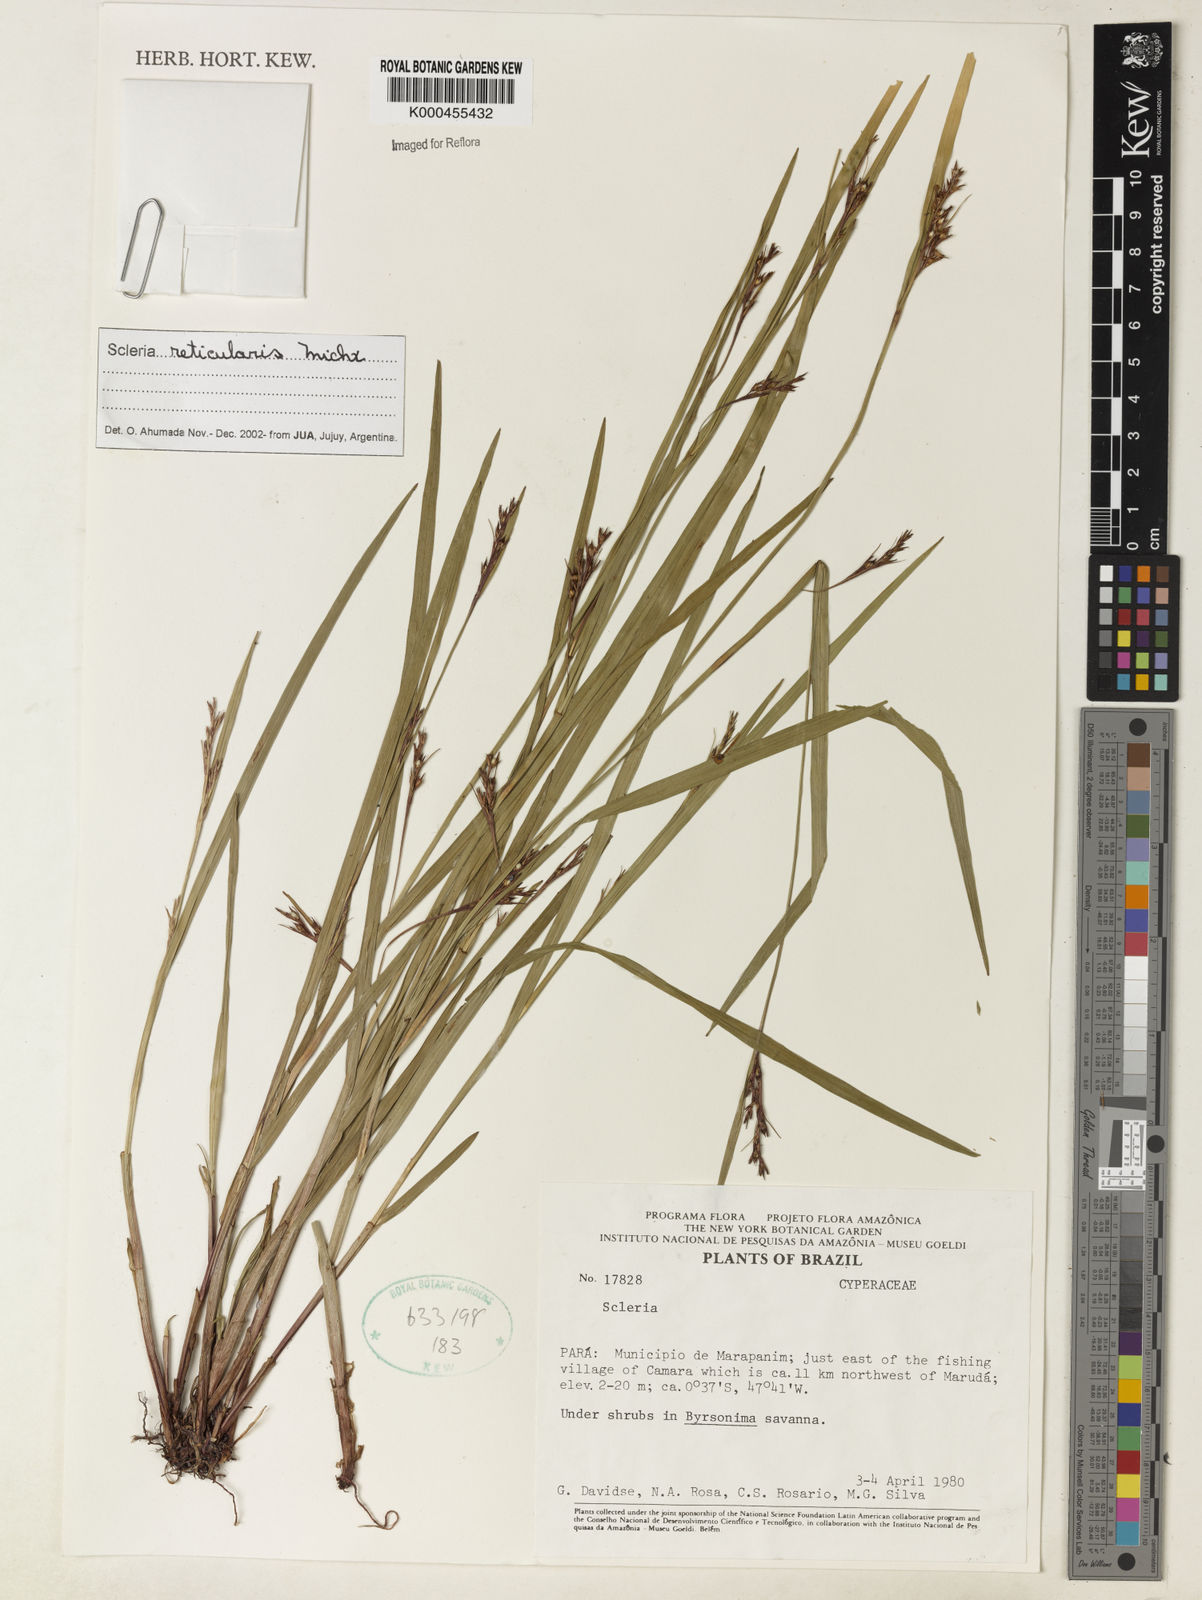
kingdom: Plantae
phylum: Tracheophyta
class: Liliopsida
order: Poales
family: Cyperaceae
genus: Scleria
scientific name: Scleria
